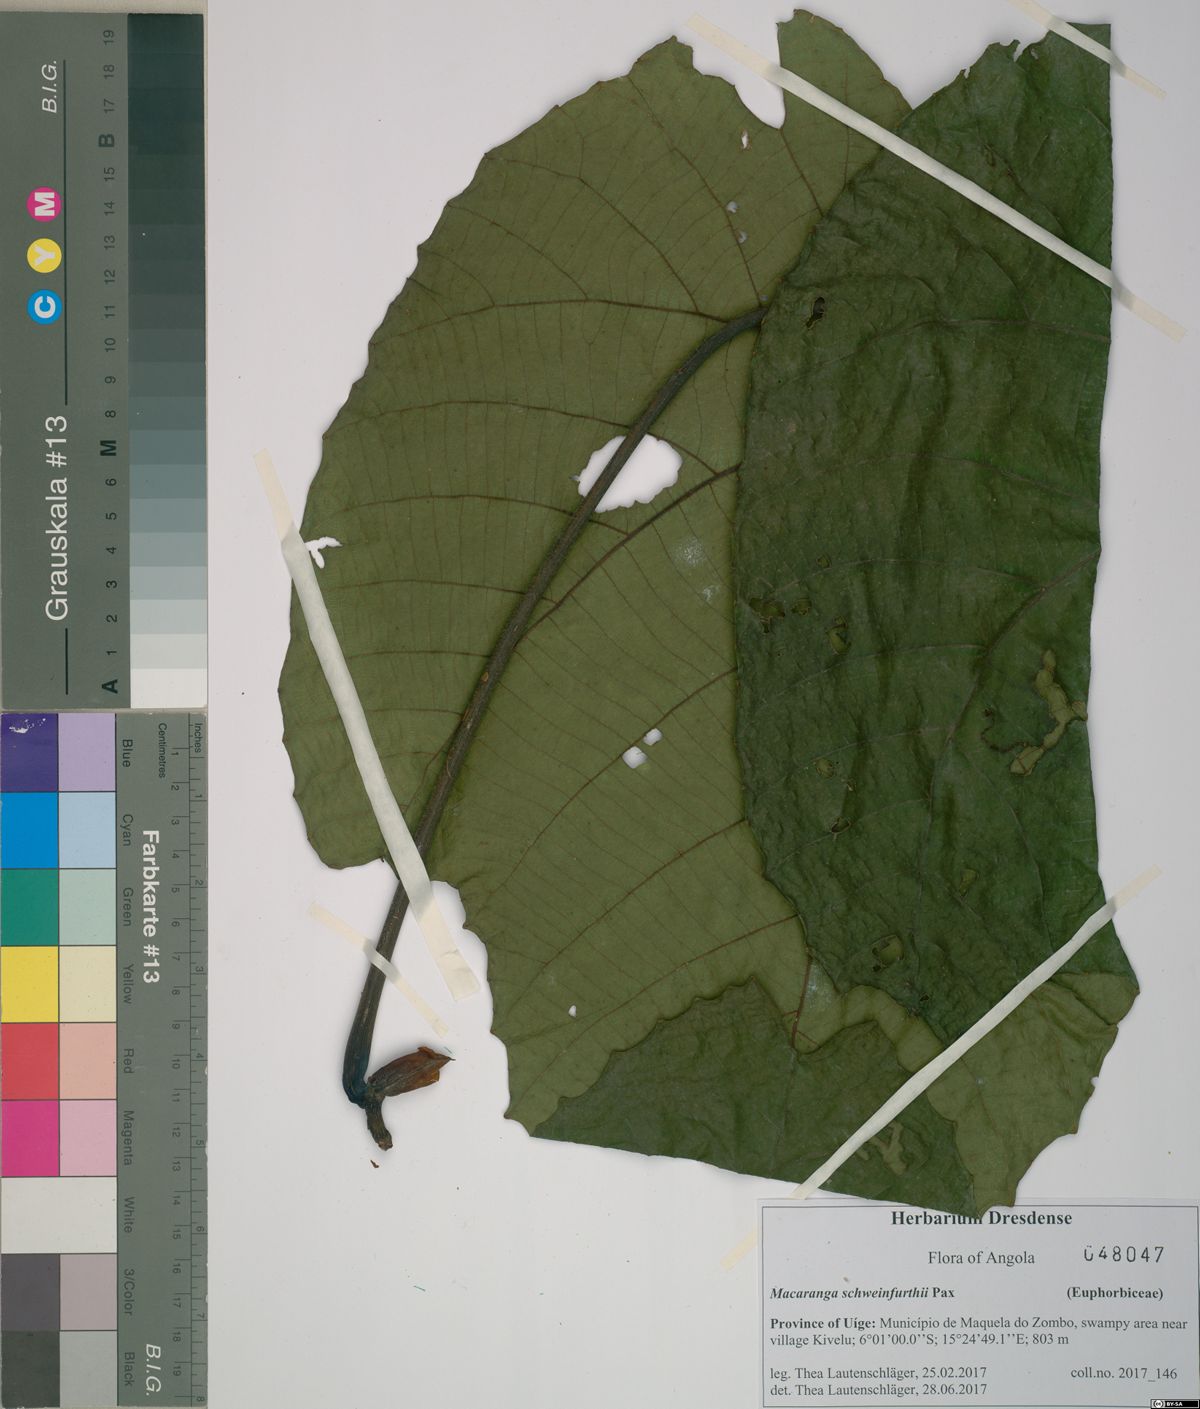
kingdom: Plantae
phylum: Tracheophyta
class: Magnoliopsida
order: Malpighiales
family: Euphorbiaceae
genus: Macaranga
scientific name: Macaranga schweinfurthii
